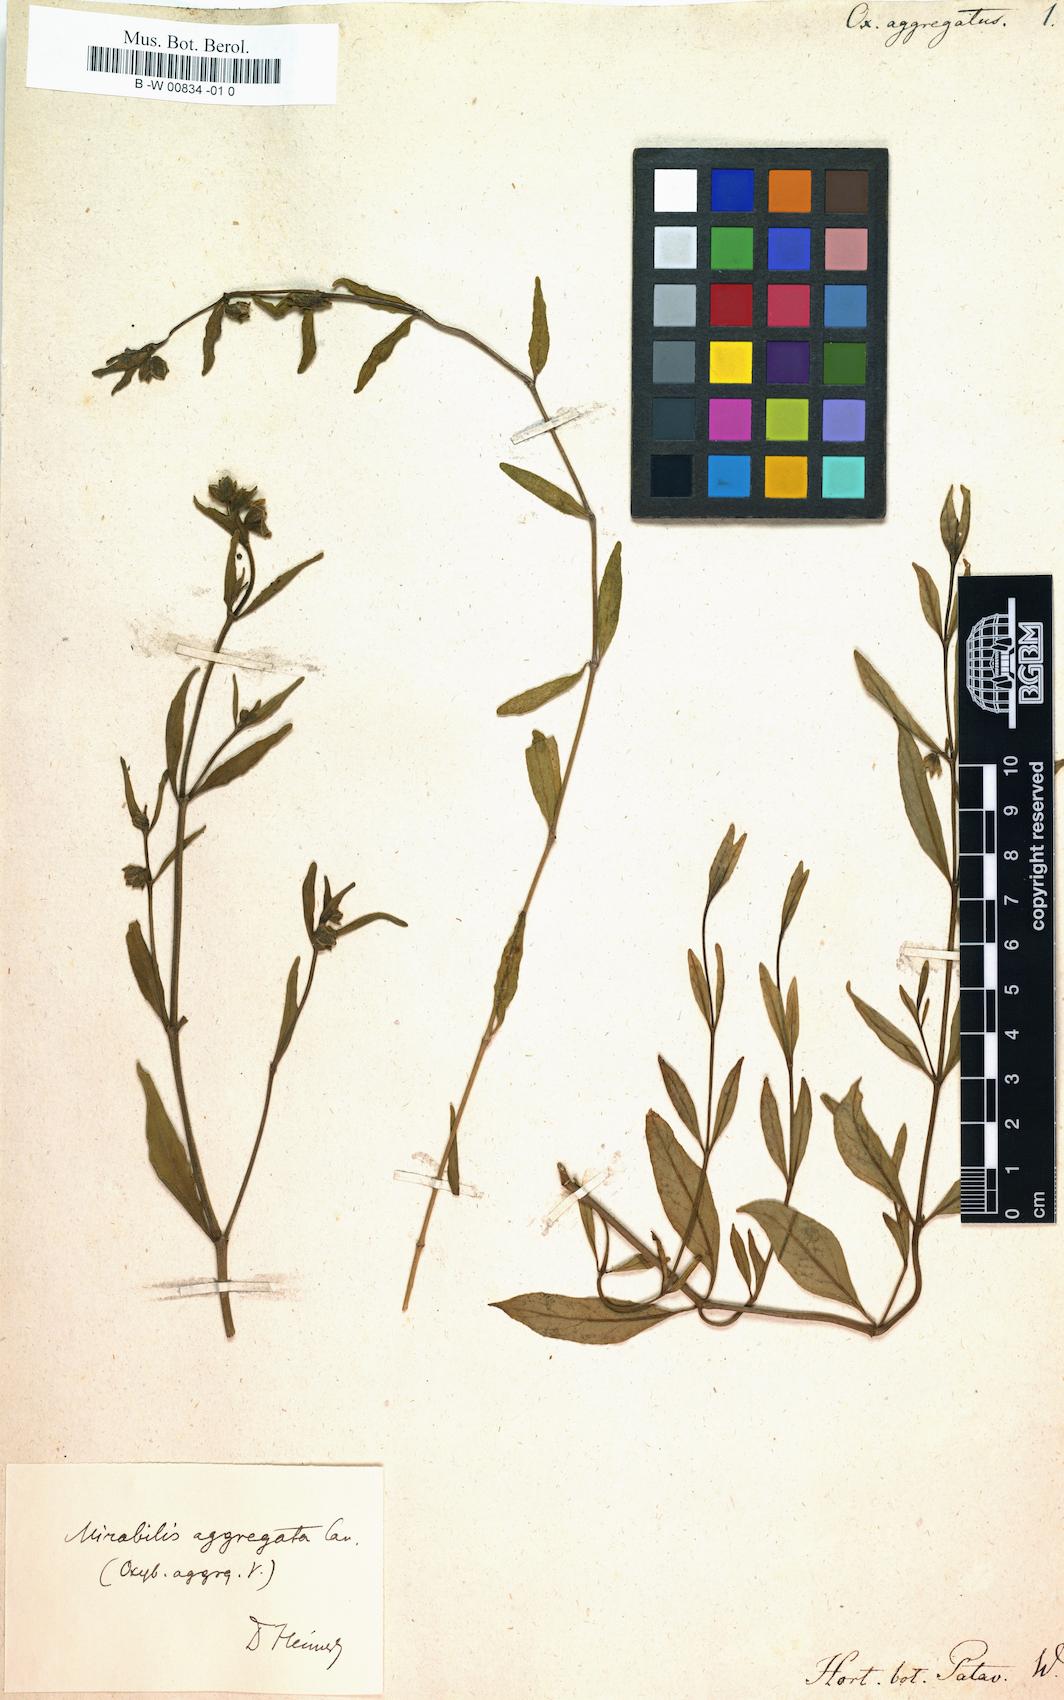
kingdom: Plantae
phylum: Tracheophyta
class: Magnoliopsida
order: Caryophyllales
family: Nyctaginaceae
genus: Mirabilis
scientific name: Mirabilis aggregata
